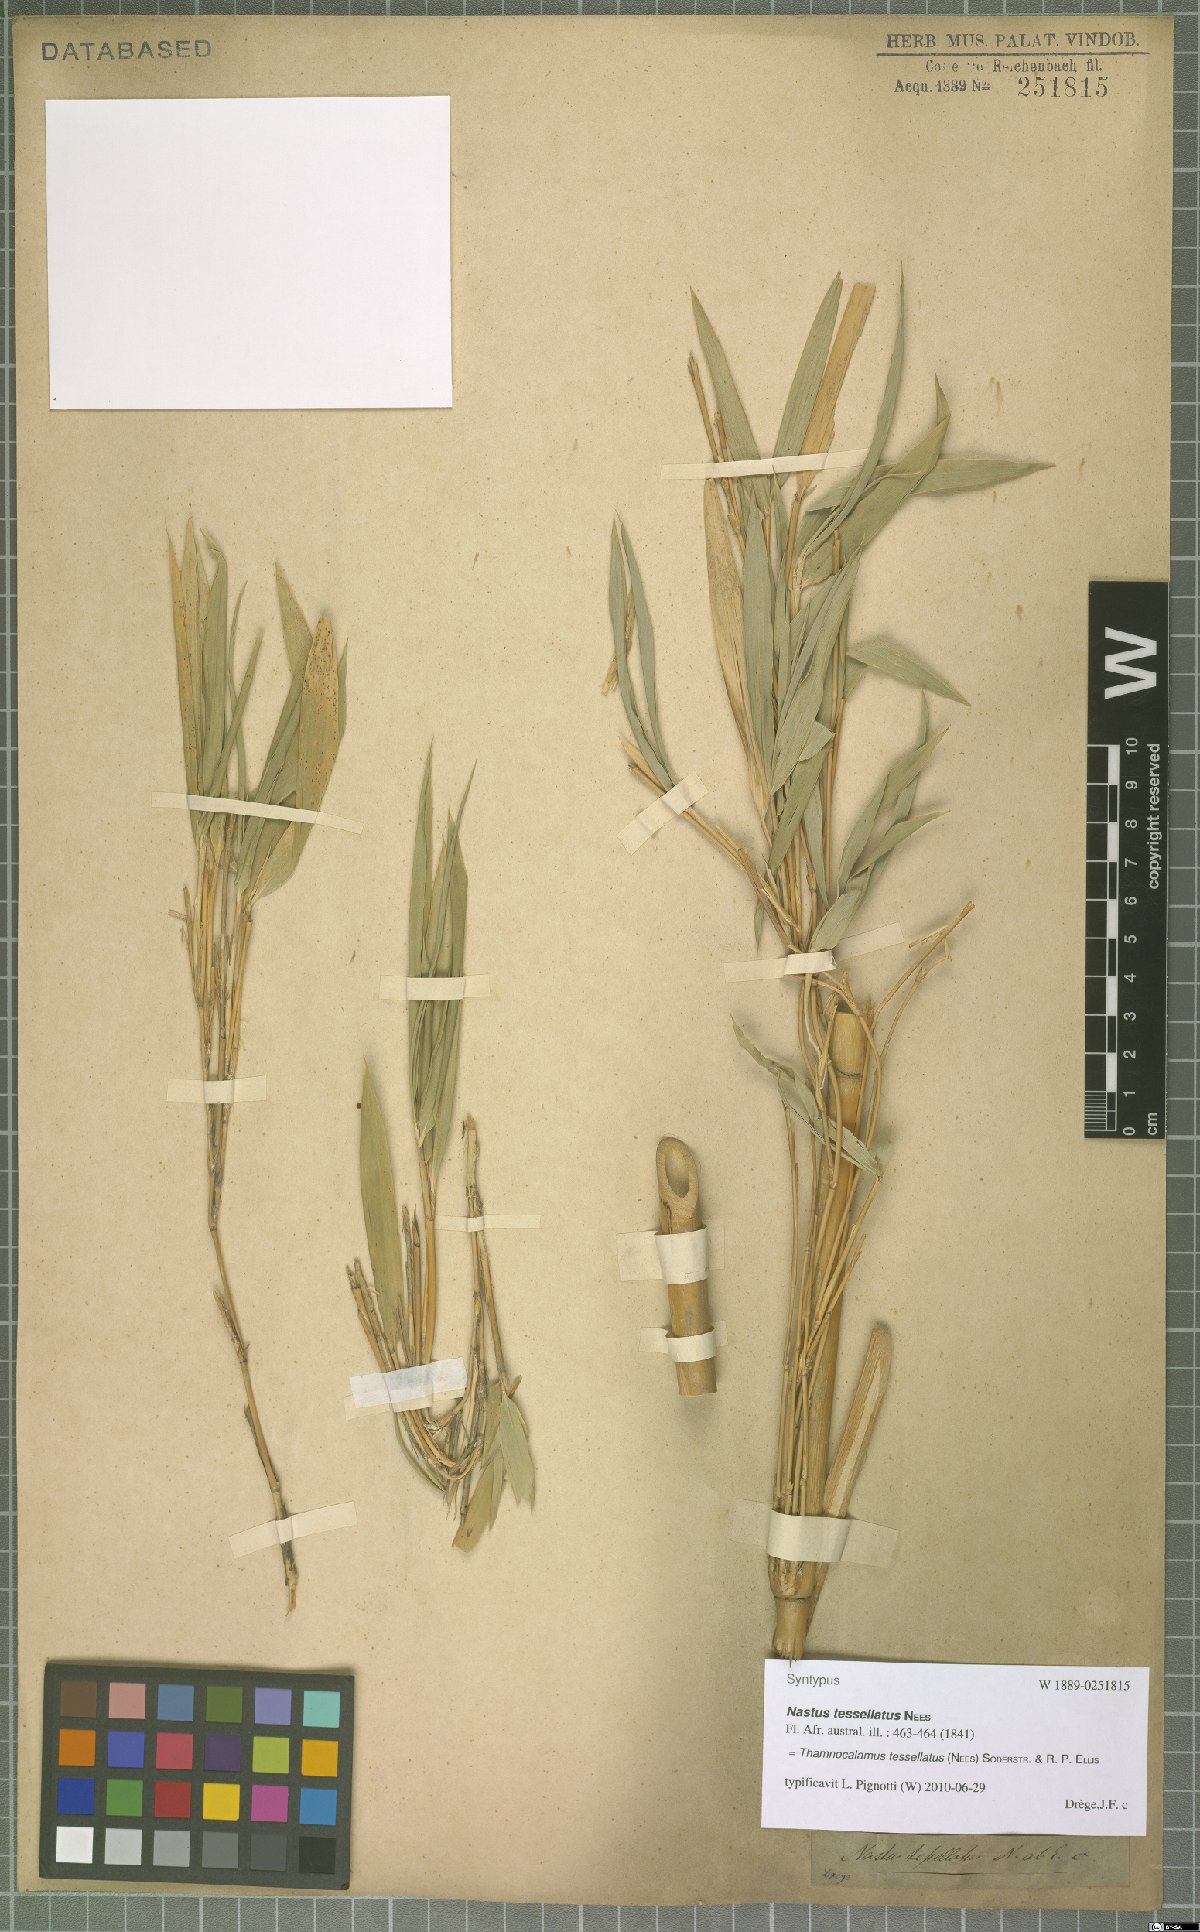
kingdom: Plantae
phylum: Tracheophyta
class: Liliopsida
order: Poales
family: Poaceae
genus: Bergbambos
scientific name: Bergbambos tessellata
